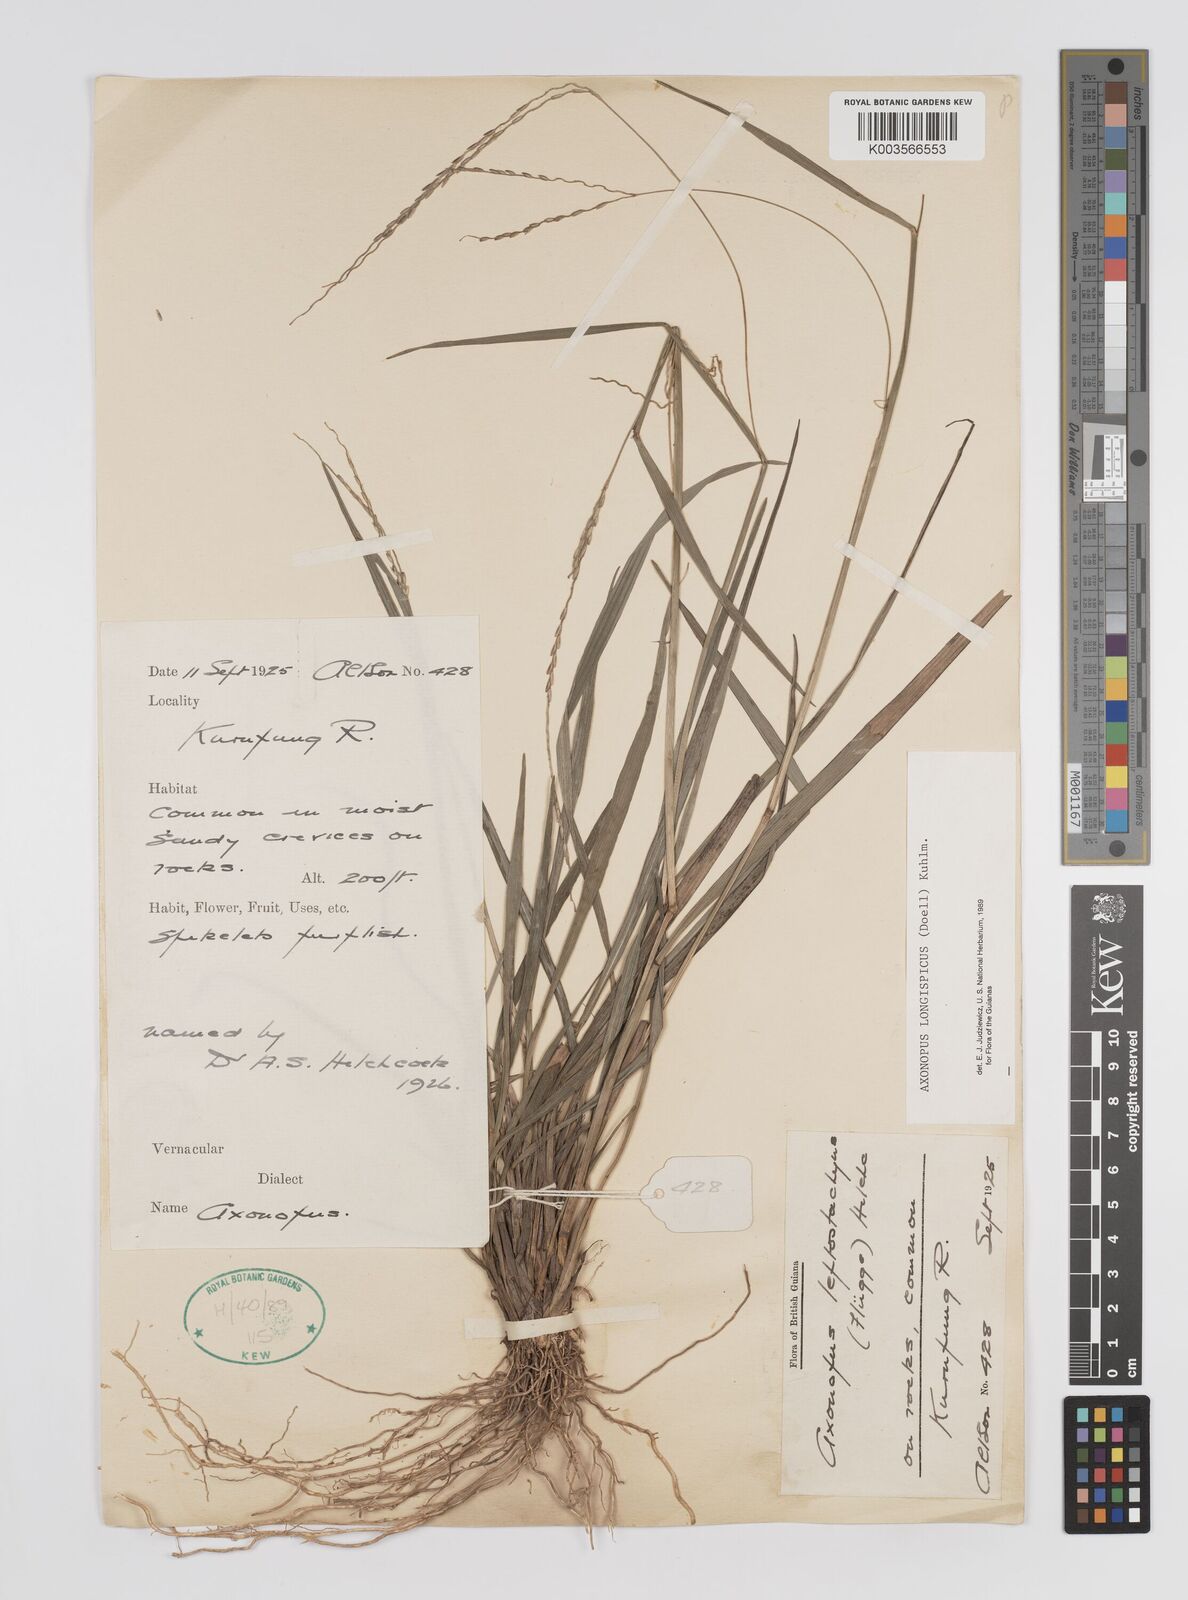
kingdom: Plantae
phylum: Tracheophyta
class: Liliopsida
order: Poales
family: Poaceae
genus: Axonopus
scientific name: Axonopus longispicus
